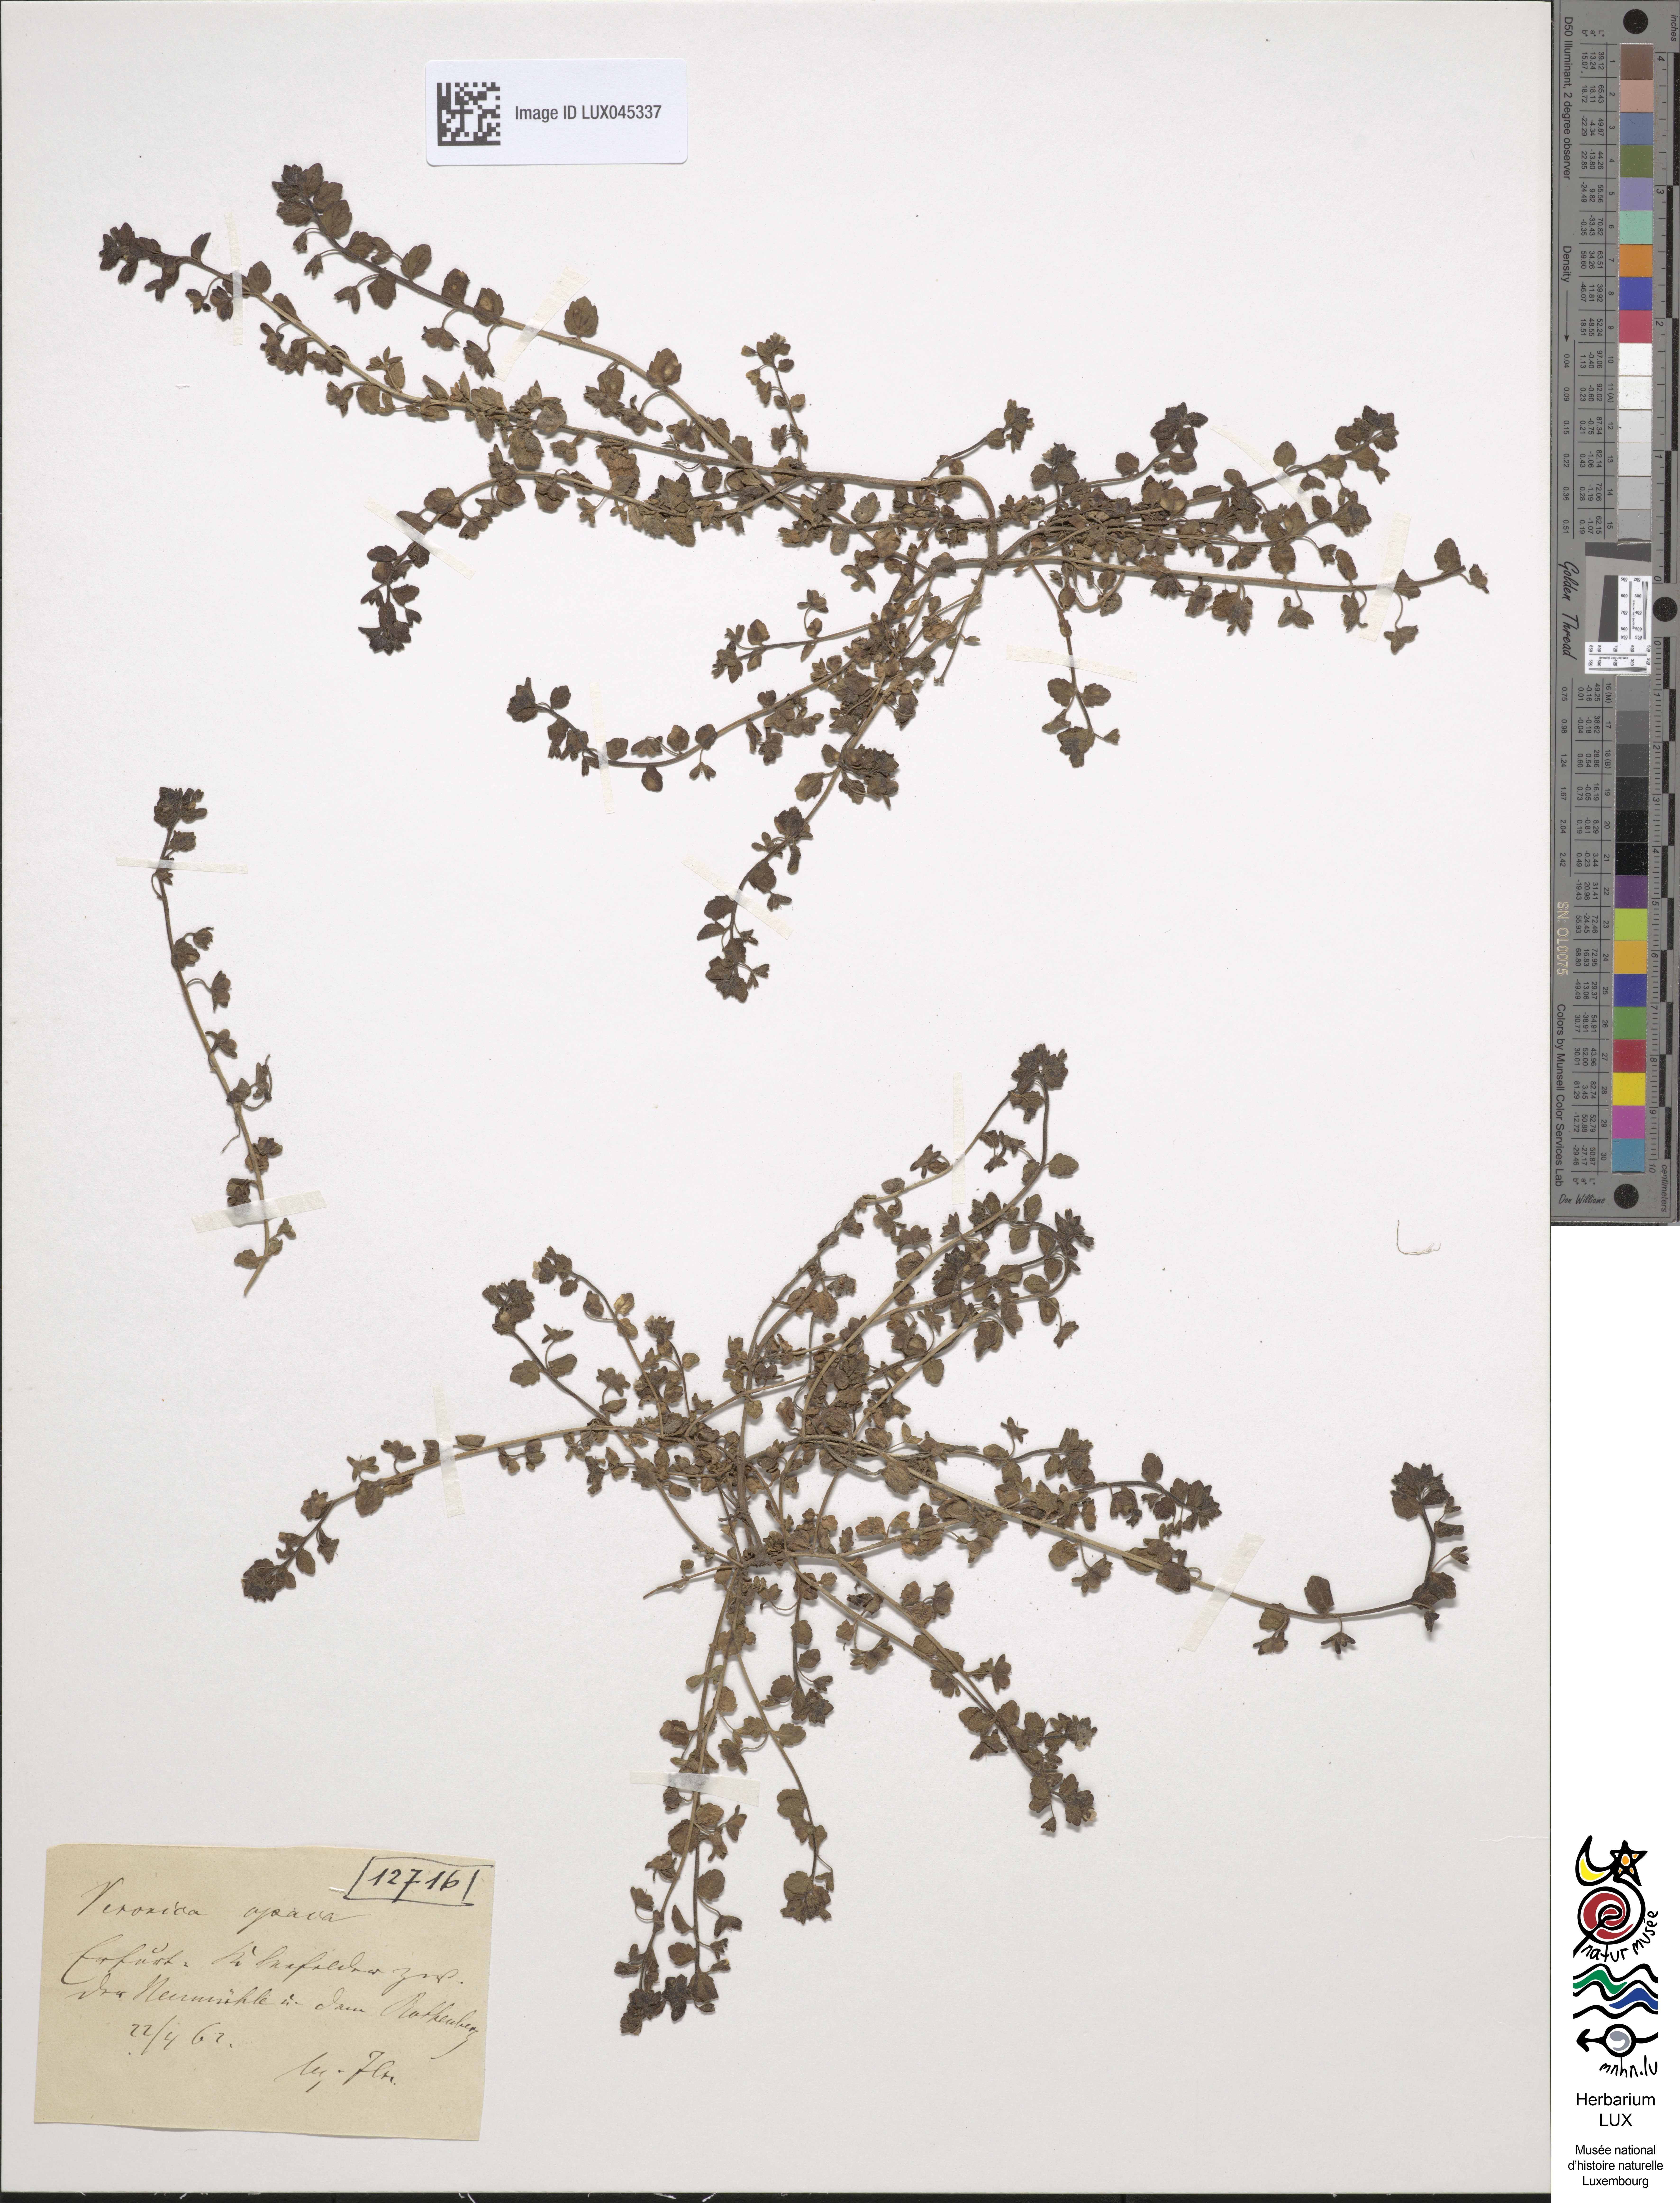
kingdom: Plantae
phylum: Tracheophyta
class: Magnoliopsida
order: Lamiales
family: Plantaginaceae
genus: Veronica
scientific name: Veronica opaca
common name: Dark speedwell
